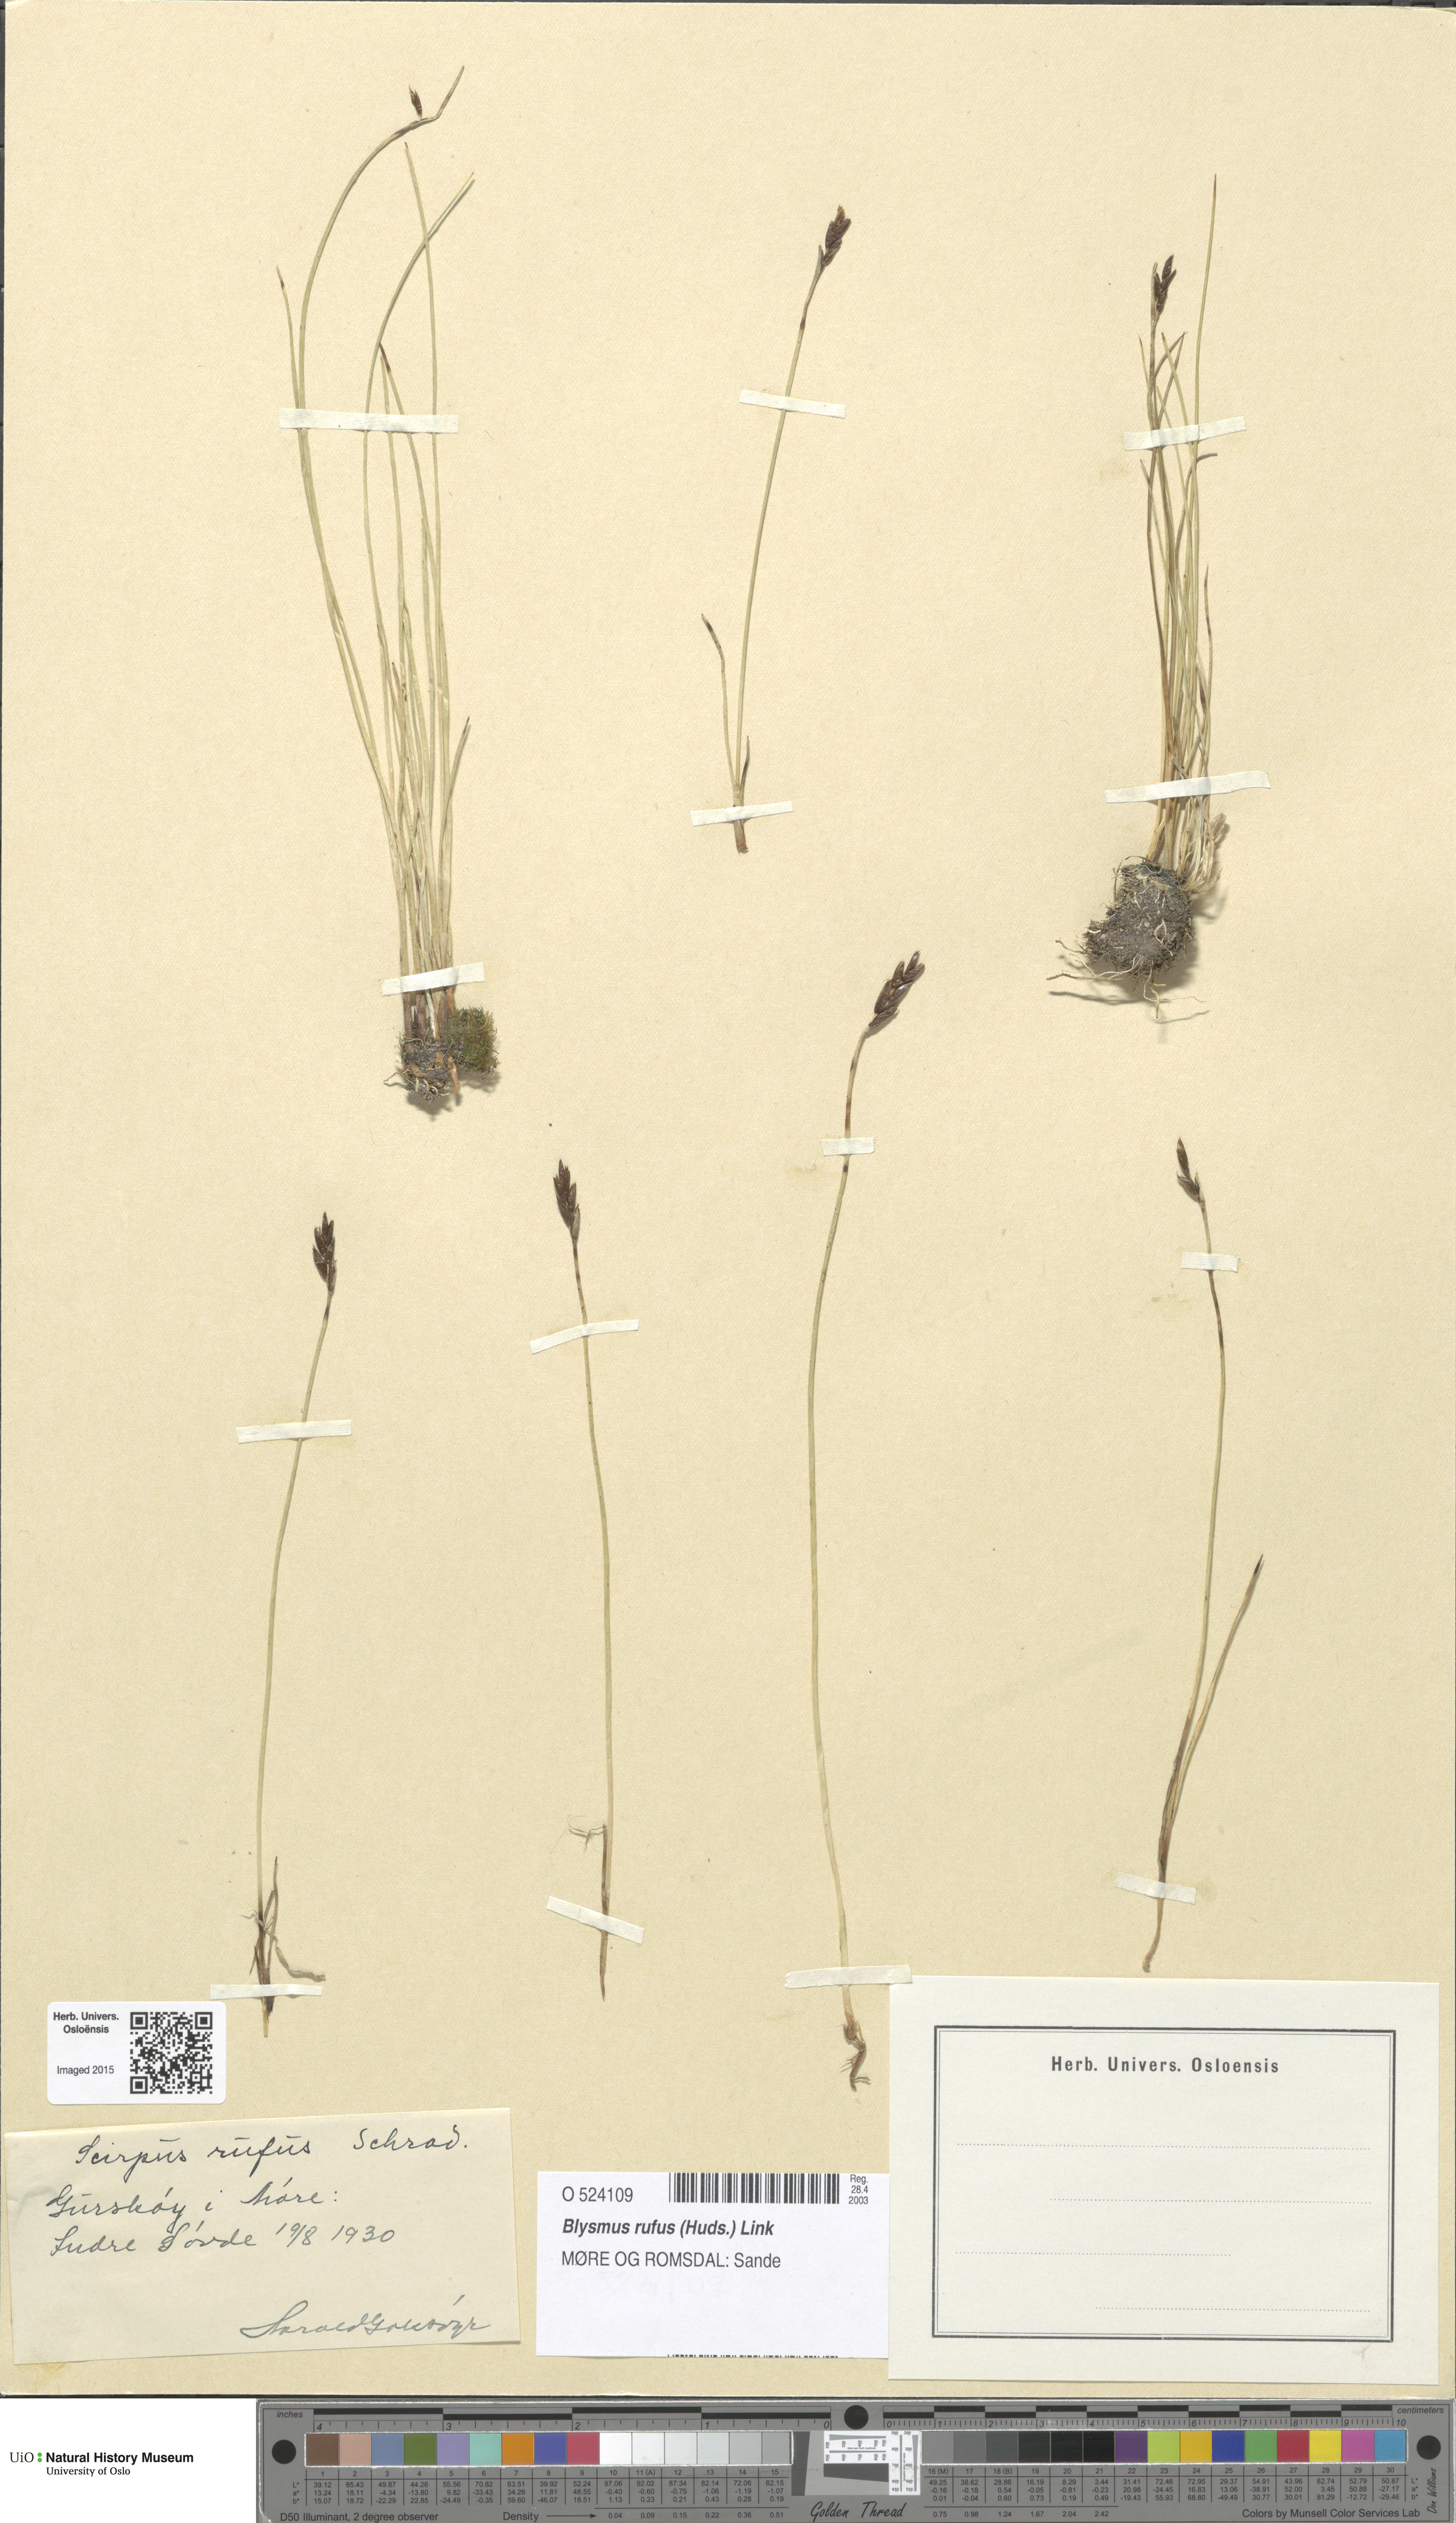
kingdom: Plantae
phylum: Tracheophyta
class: Liliopsida
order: Poales
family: Cyperaceae
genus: Blysmus
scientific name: Blysmus rufus
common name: Saltmarsh flat-sedge
